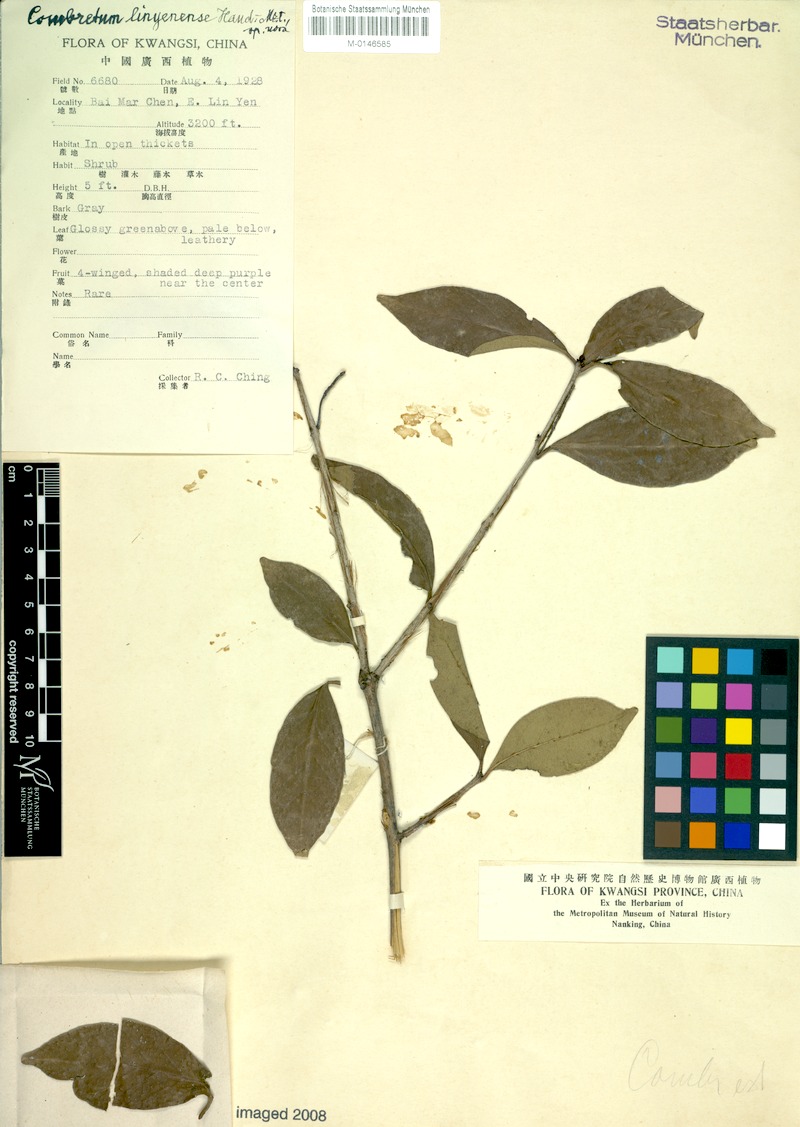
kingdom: Plantae
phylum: Tracheophyta
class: Magnoliopsida
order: Myrtales
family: Combretaceae
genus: Combretum
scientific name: Combretum wallichii
